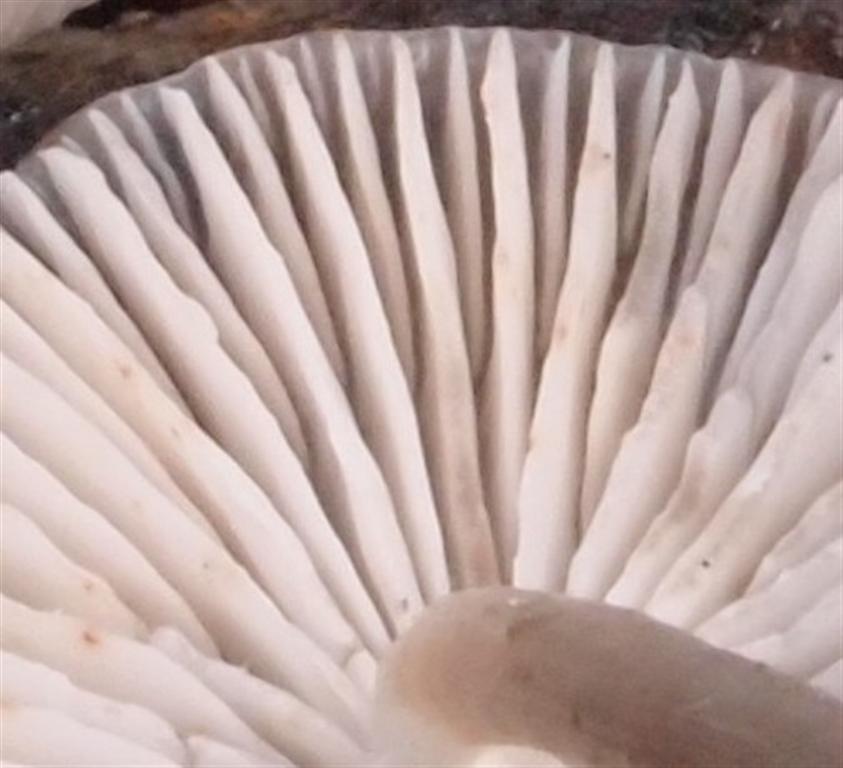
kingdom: Fungi
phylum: Basidiomycota
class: Agaricomycetes
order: Agaricales
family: Mycenaceae
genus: Mycena
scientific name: Mycena polygramma
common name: mangestribet huesvamp
